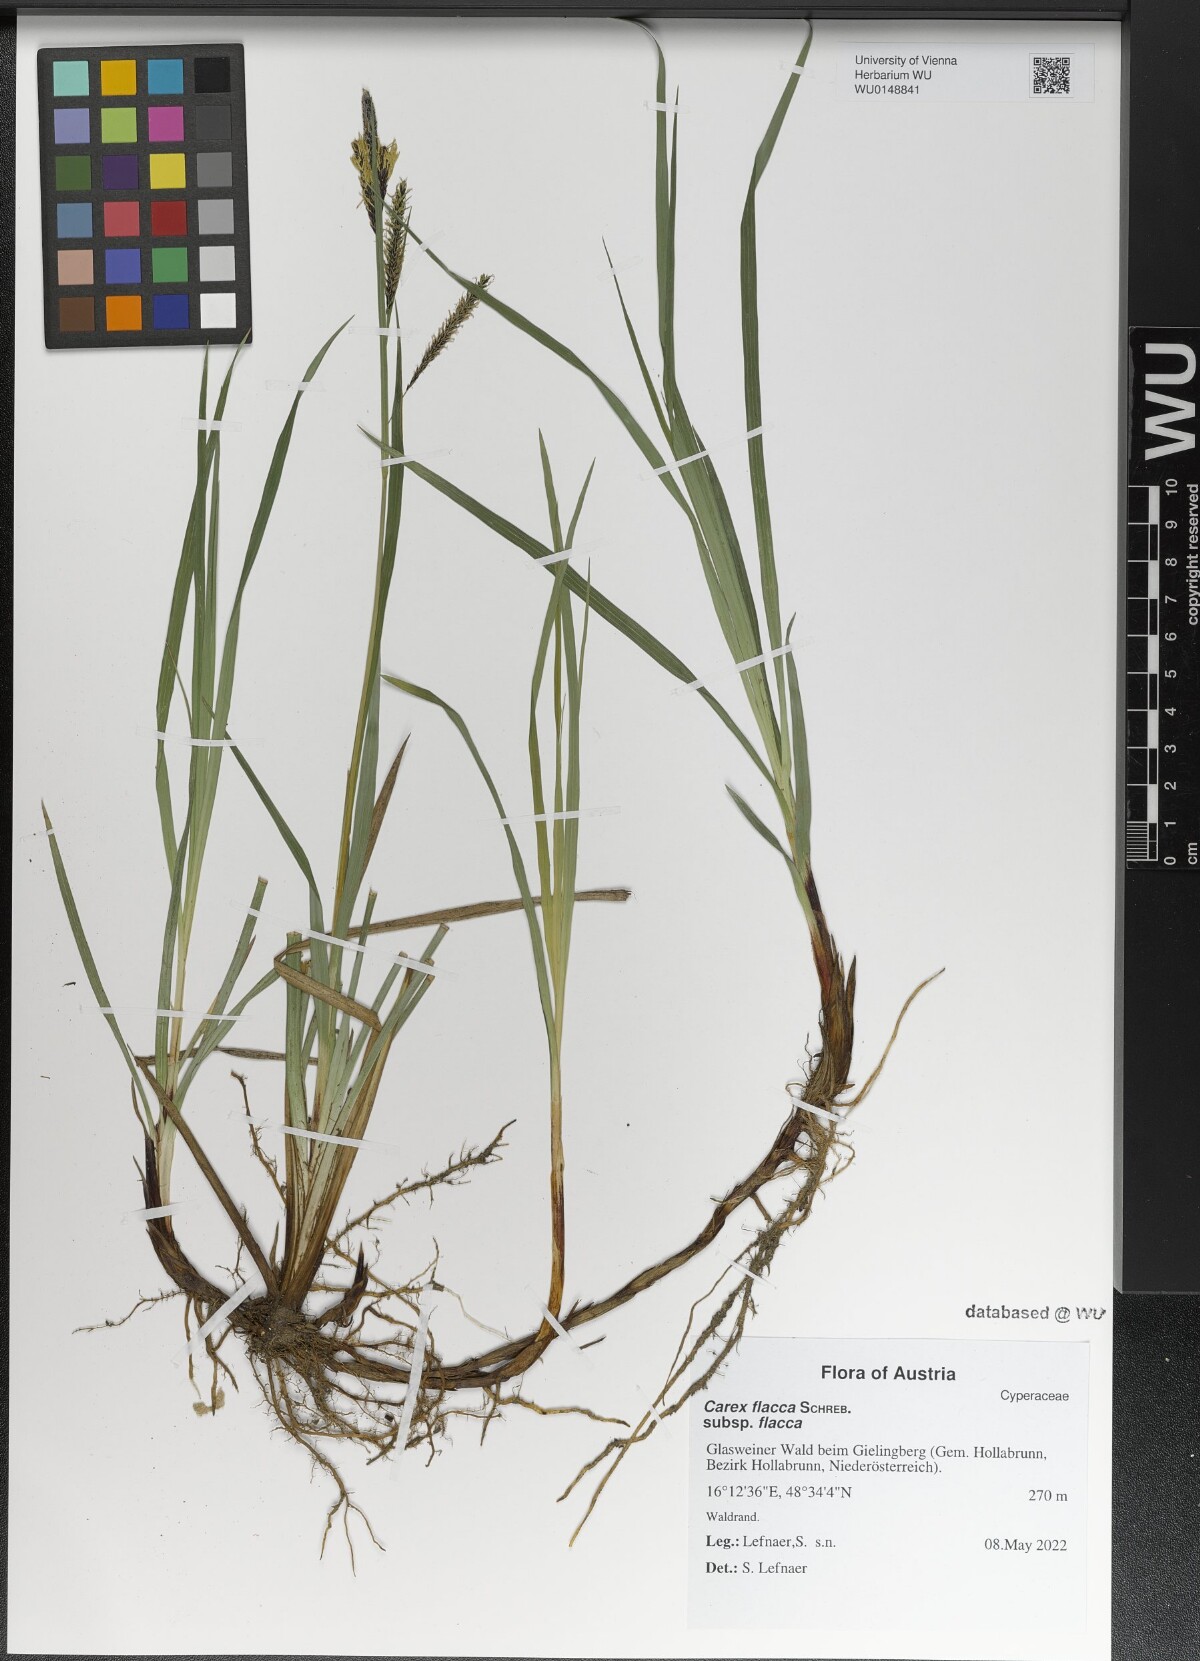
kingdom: Plantae
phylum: Tracheophyta
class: Liliopsida
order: Poales
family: Cyperaceae
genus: Carex
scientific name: Carex flacca
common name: Glaucous sedge
